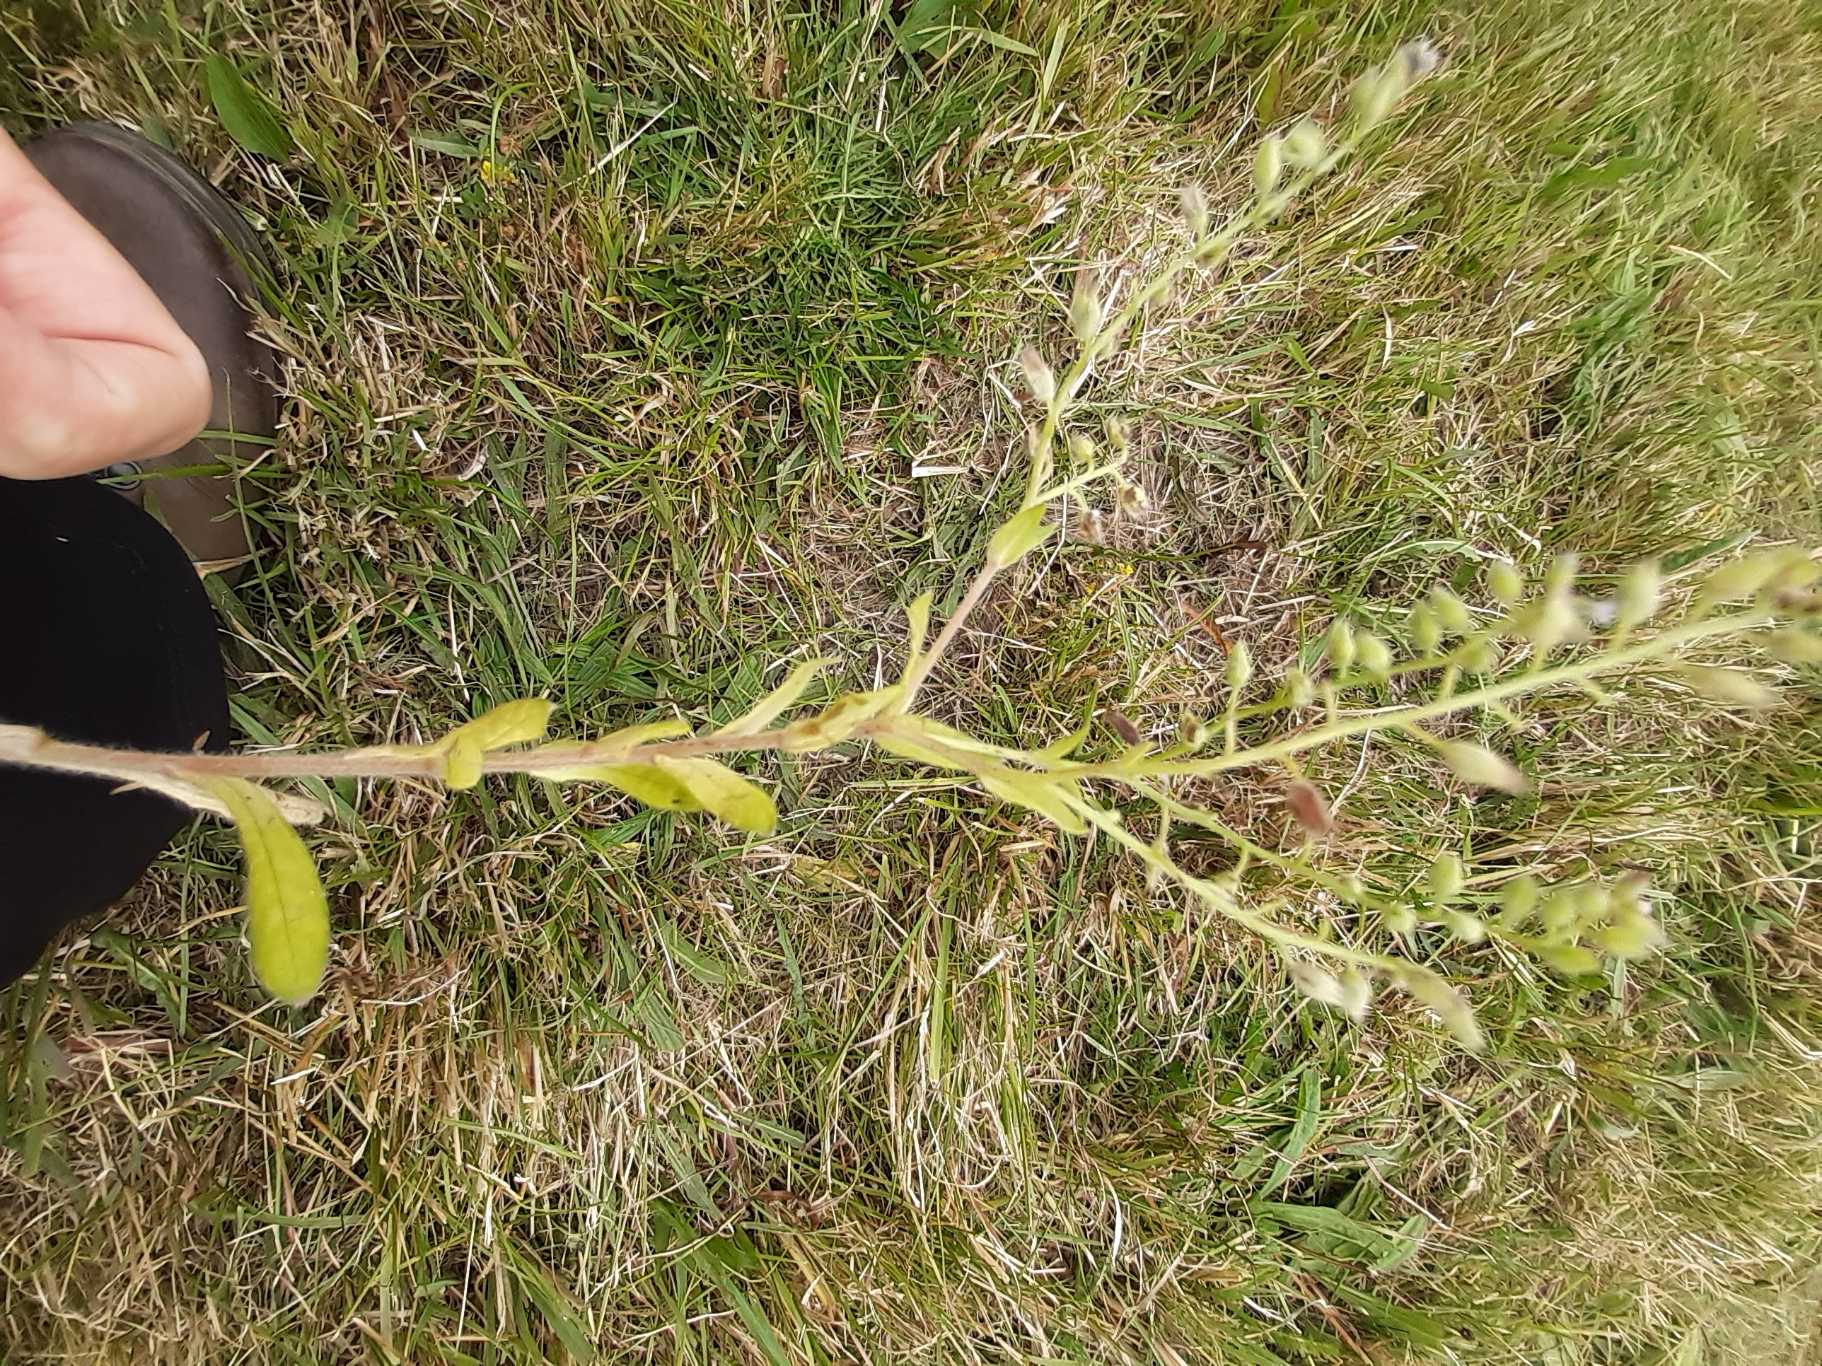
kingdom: Plantae
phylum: Tracheophyta
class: Magnoliopsida
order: Boraginales
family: Boraginaceae
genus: Myosotis
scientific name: Myosotis arvensis
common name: Mark-forglemmigej
